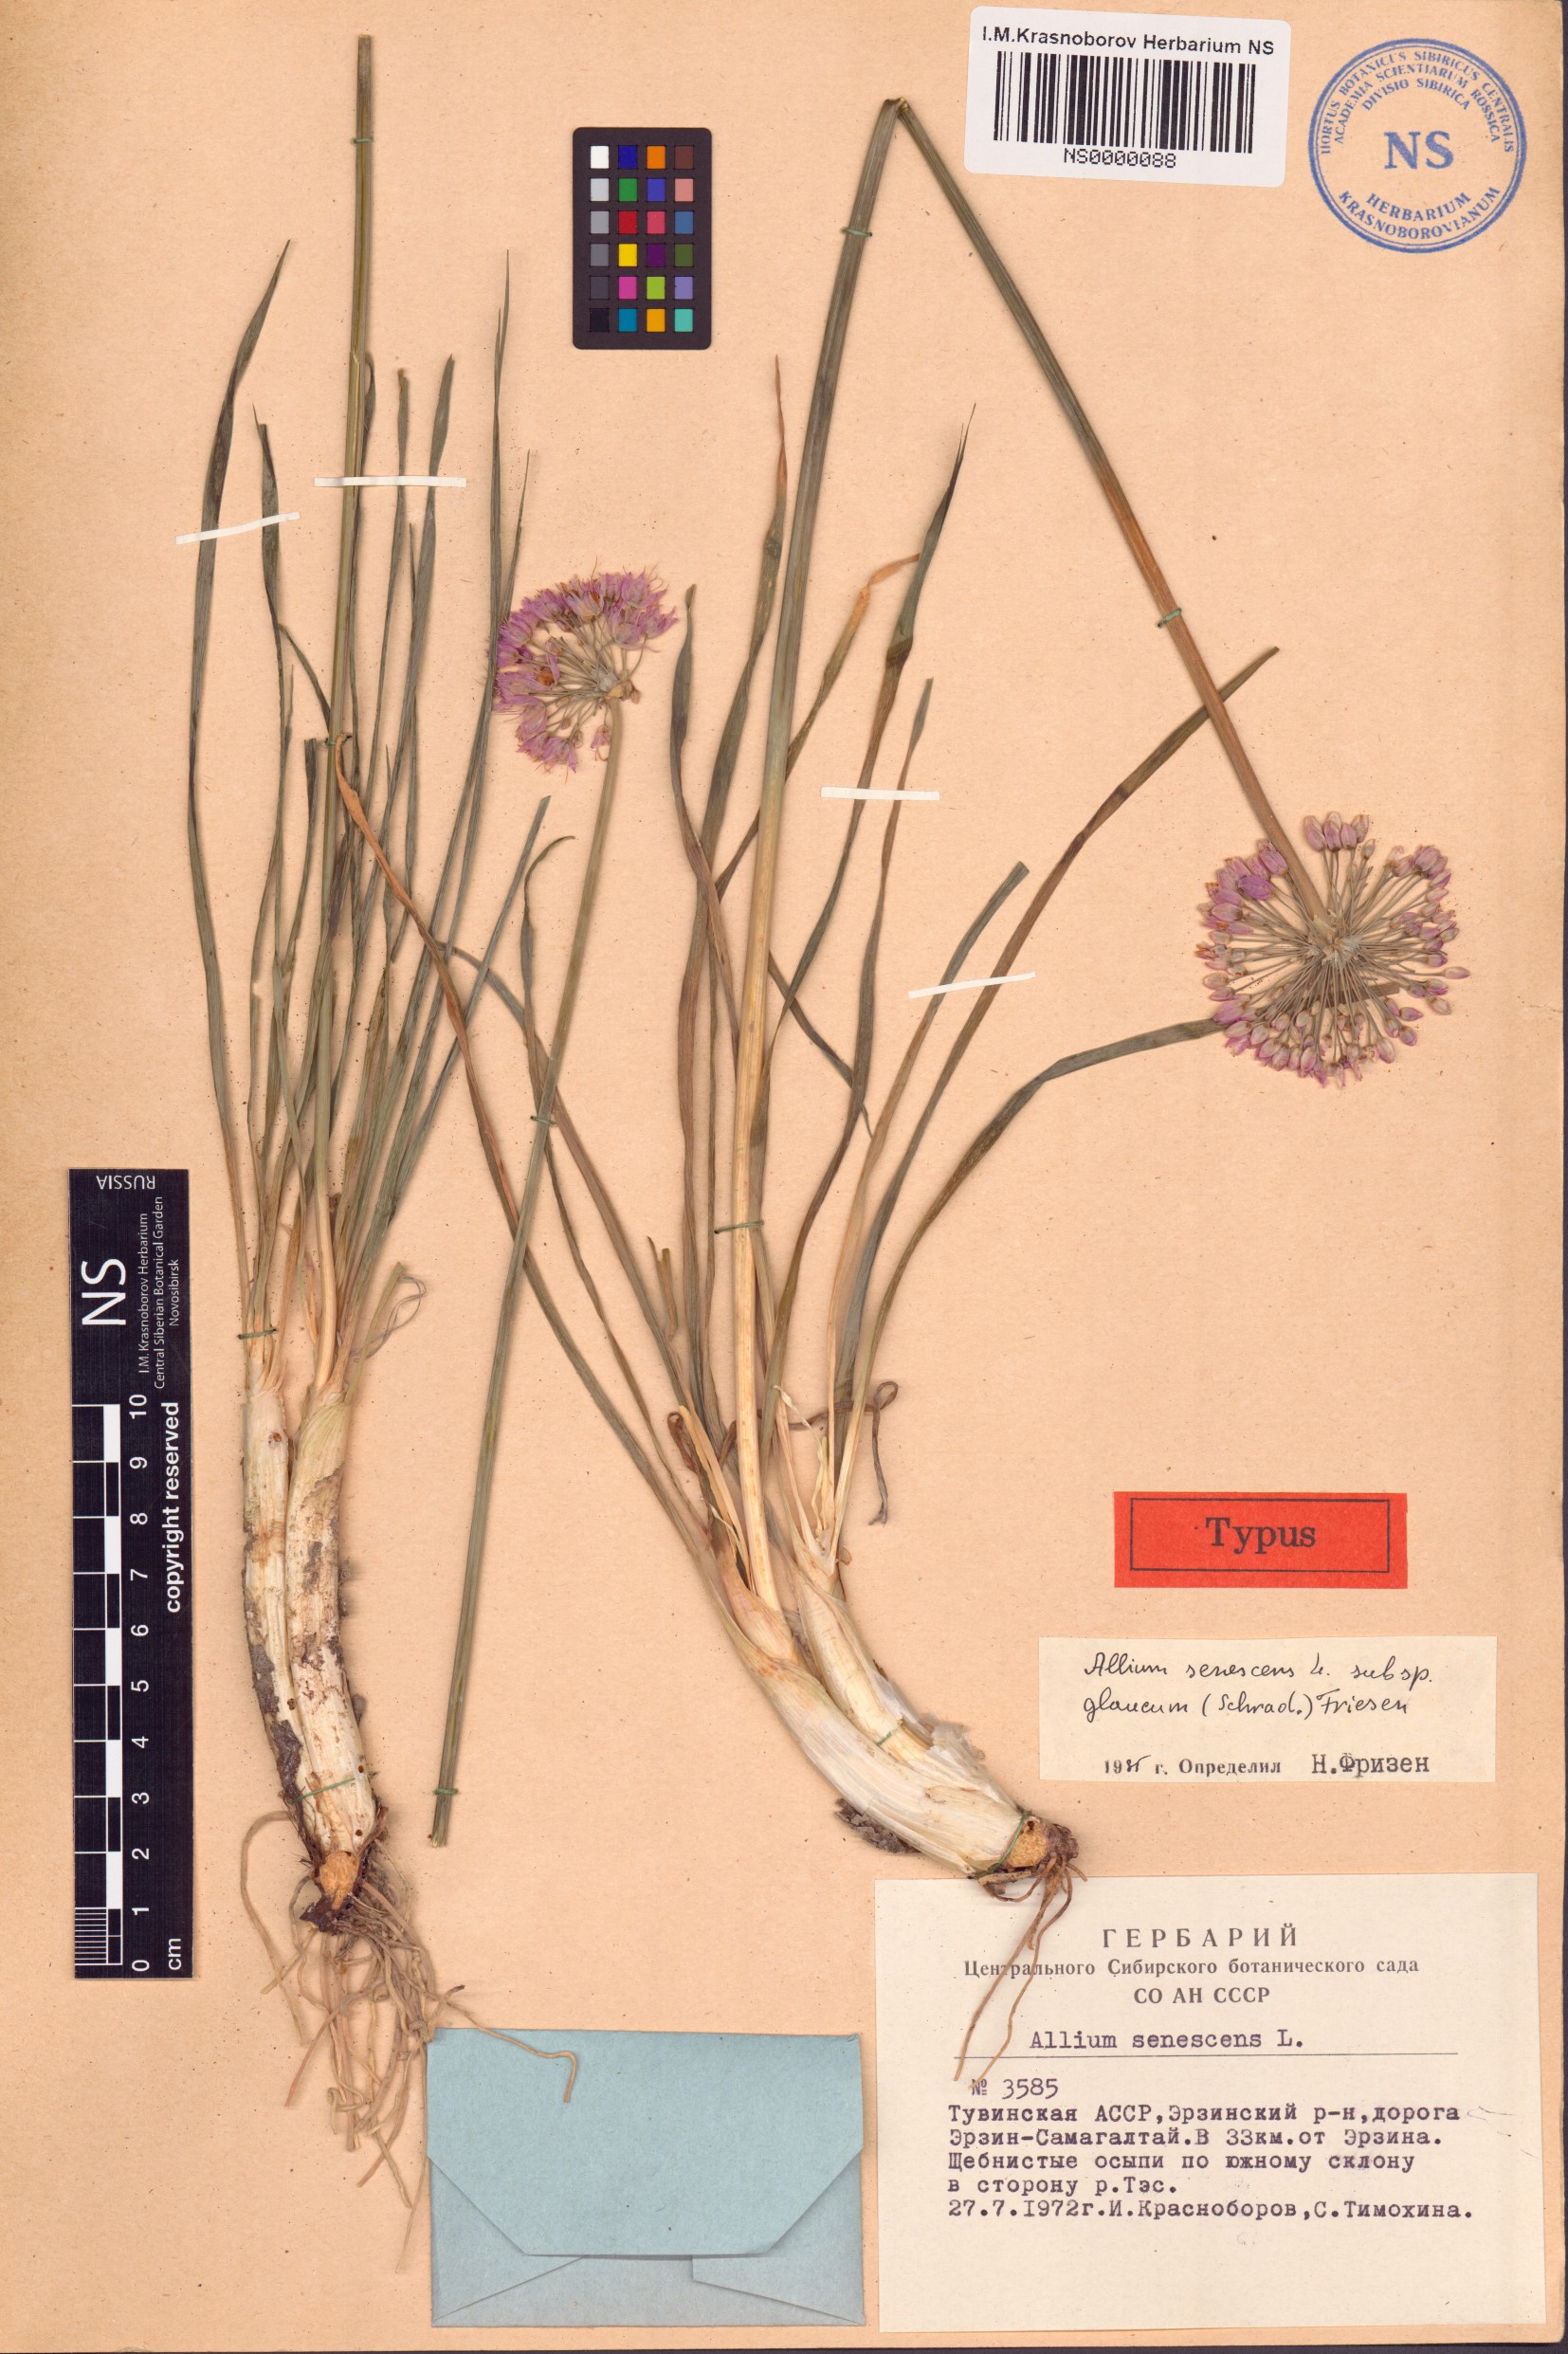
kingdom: Plantae
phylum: Tracheophyta
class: Liliopsida
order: Asparagales
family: Amaryllidaceae
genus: Allium
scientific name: Allium senescens
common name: German garlic
